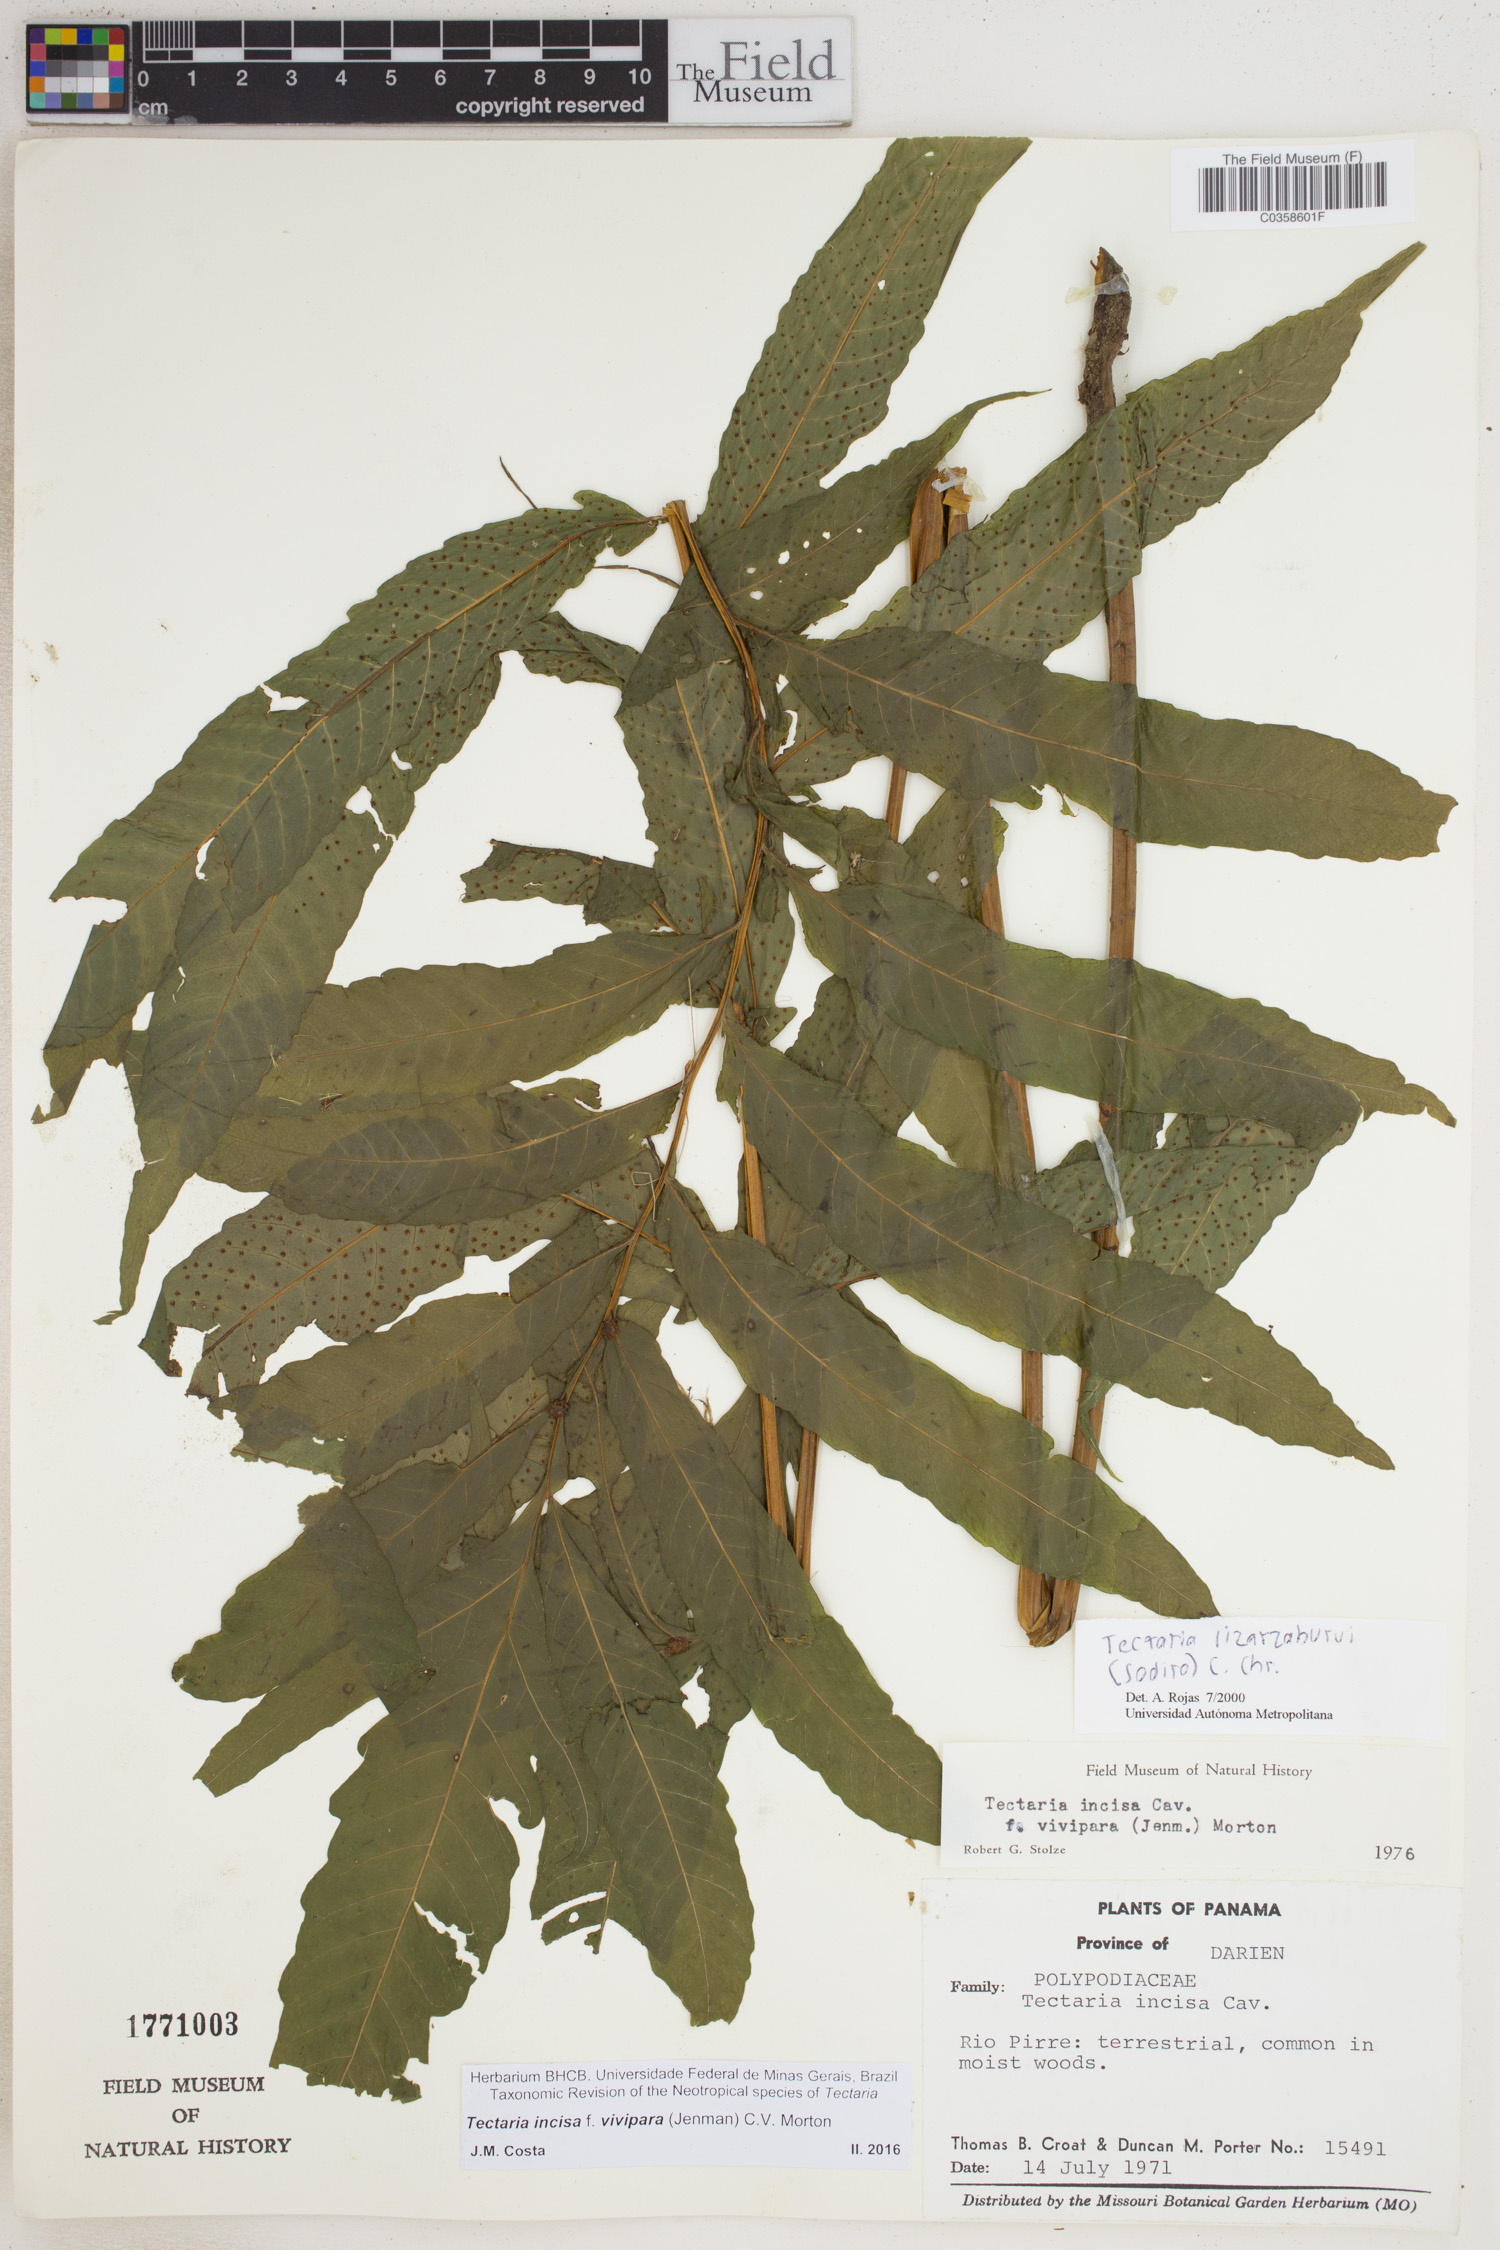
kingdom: Plantae
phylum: Tracheophyta
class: Polypodiopsida
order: Polypodiales
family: Tectariaceae
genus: Tectaria
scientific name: Tectaria incisa
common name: Incised halberd fern
